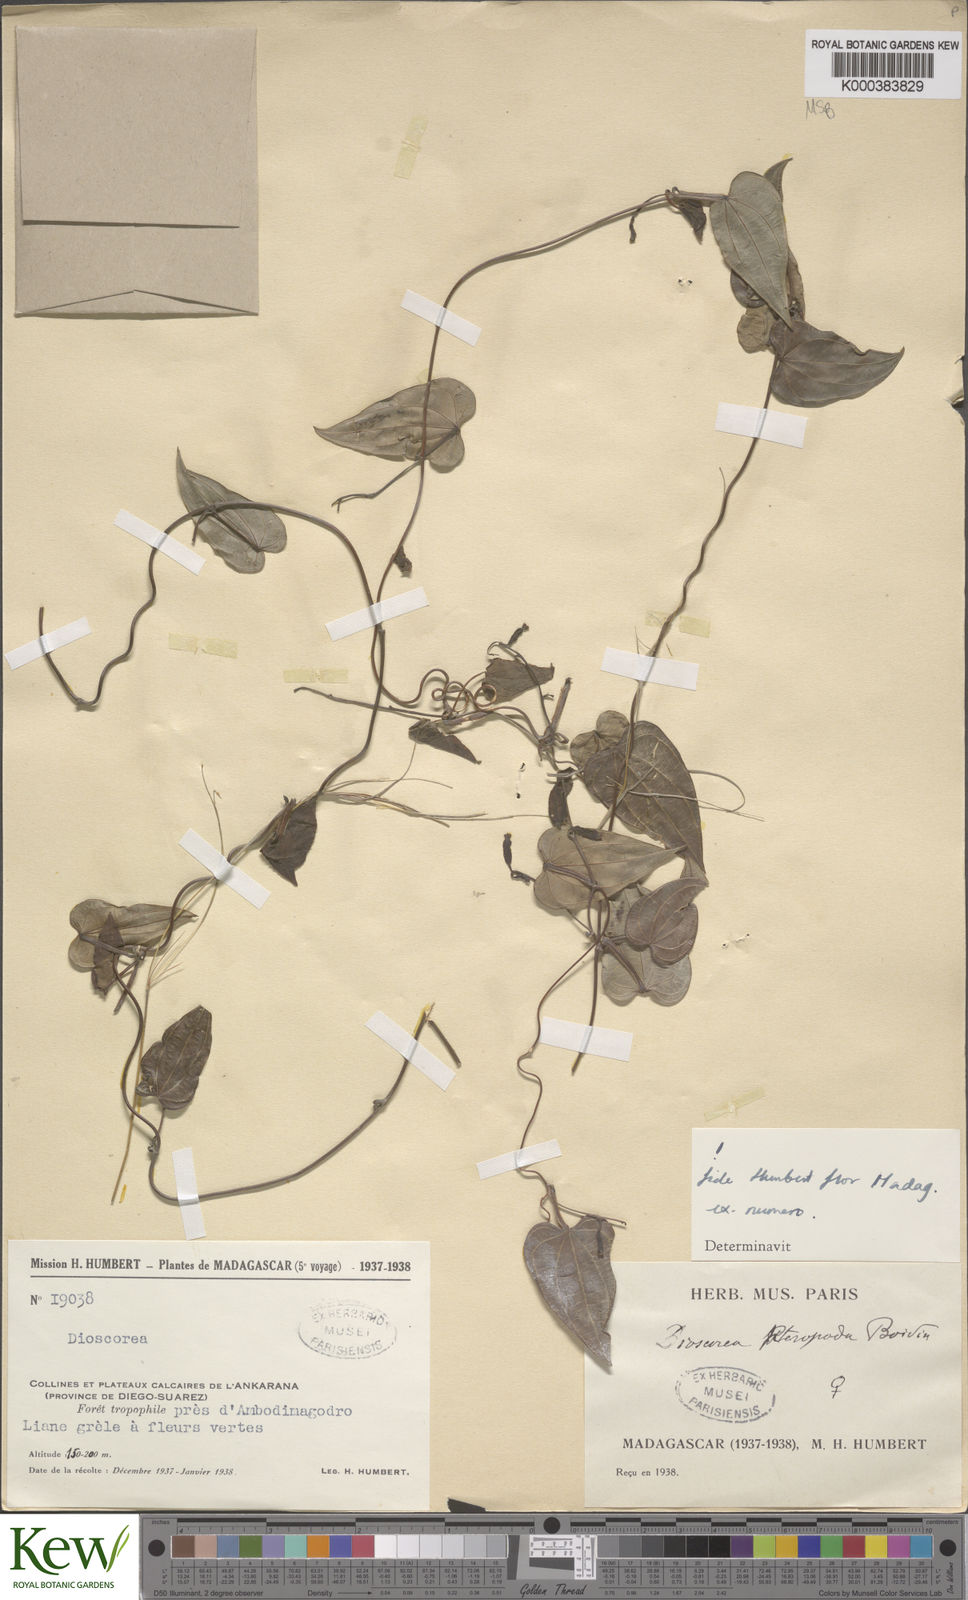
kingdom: Plantae
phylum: Tracheophyta
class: Liliopsida
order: Dioscoreales
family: Dioscoreaceae
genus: Dioscorea
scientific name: Dioscorea
